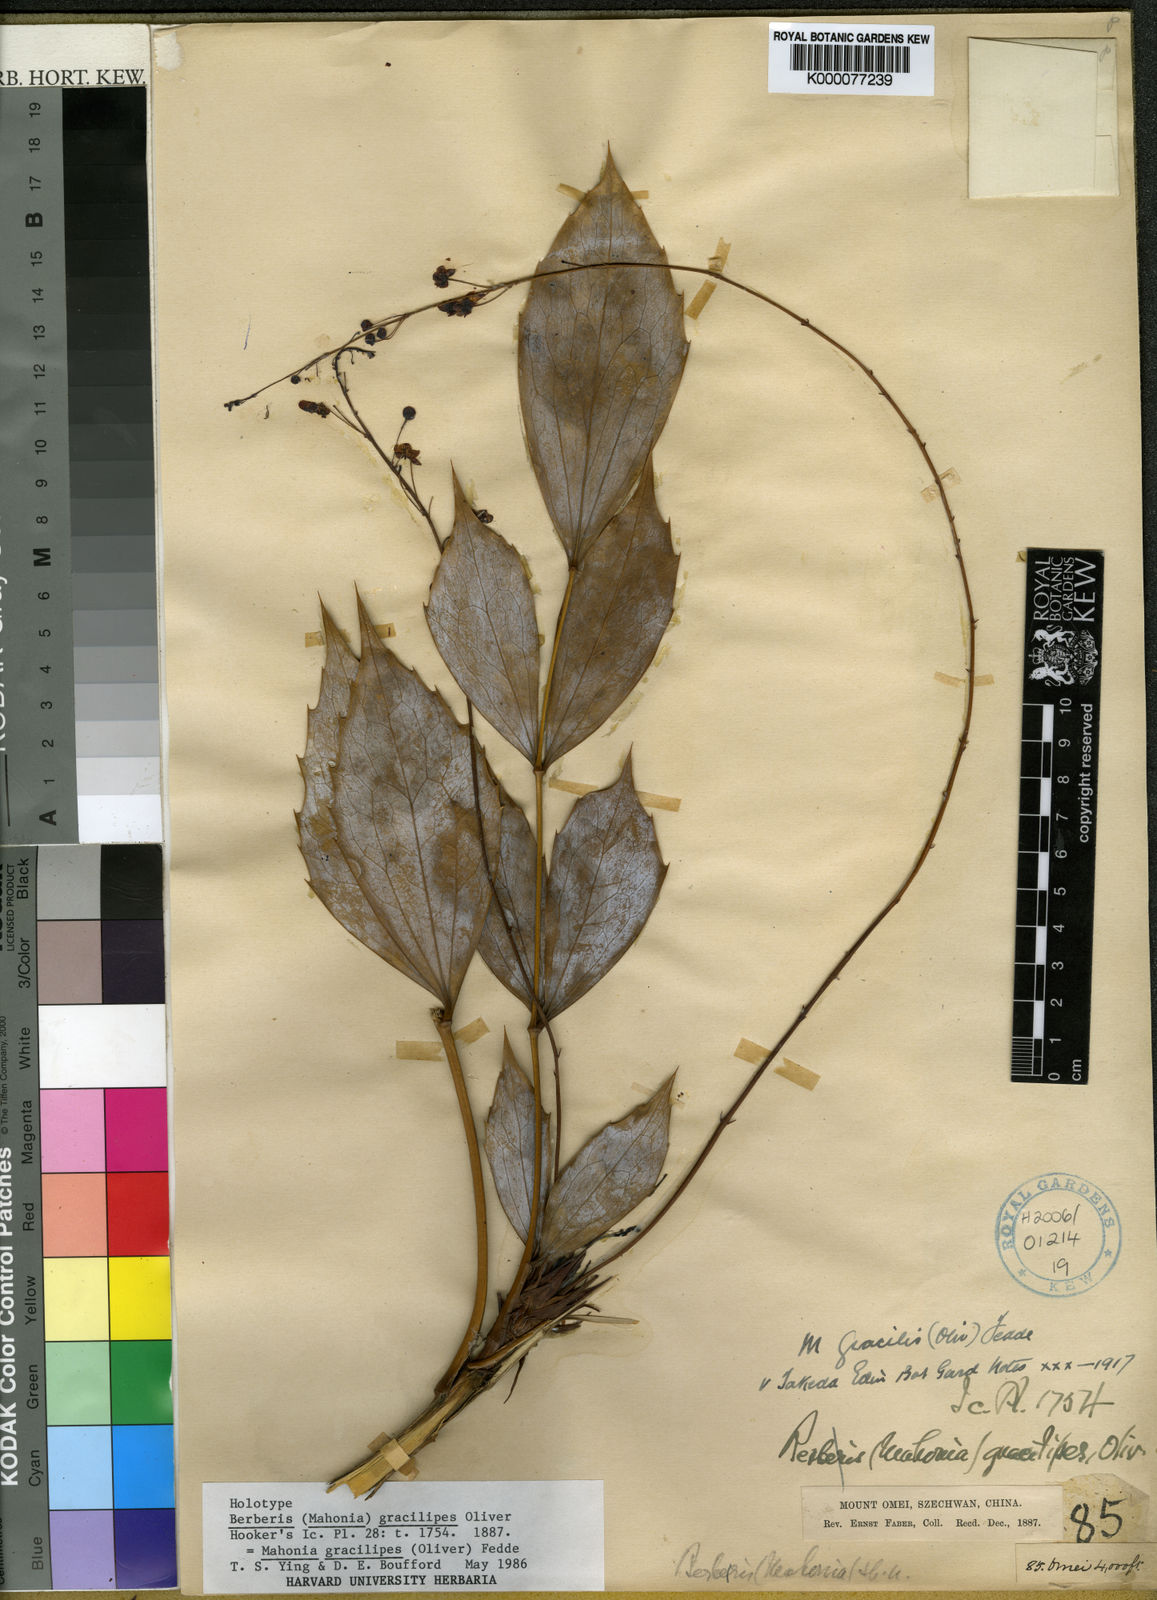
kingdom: Plantae
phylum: Tracheophyta
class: Magnoliopsida
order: Ranunculales
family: Berberidaceae
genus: Mahonia
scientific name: Mahonia gracilipes
